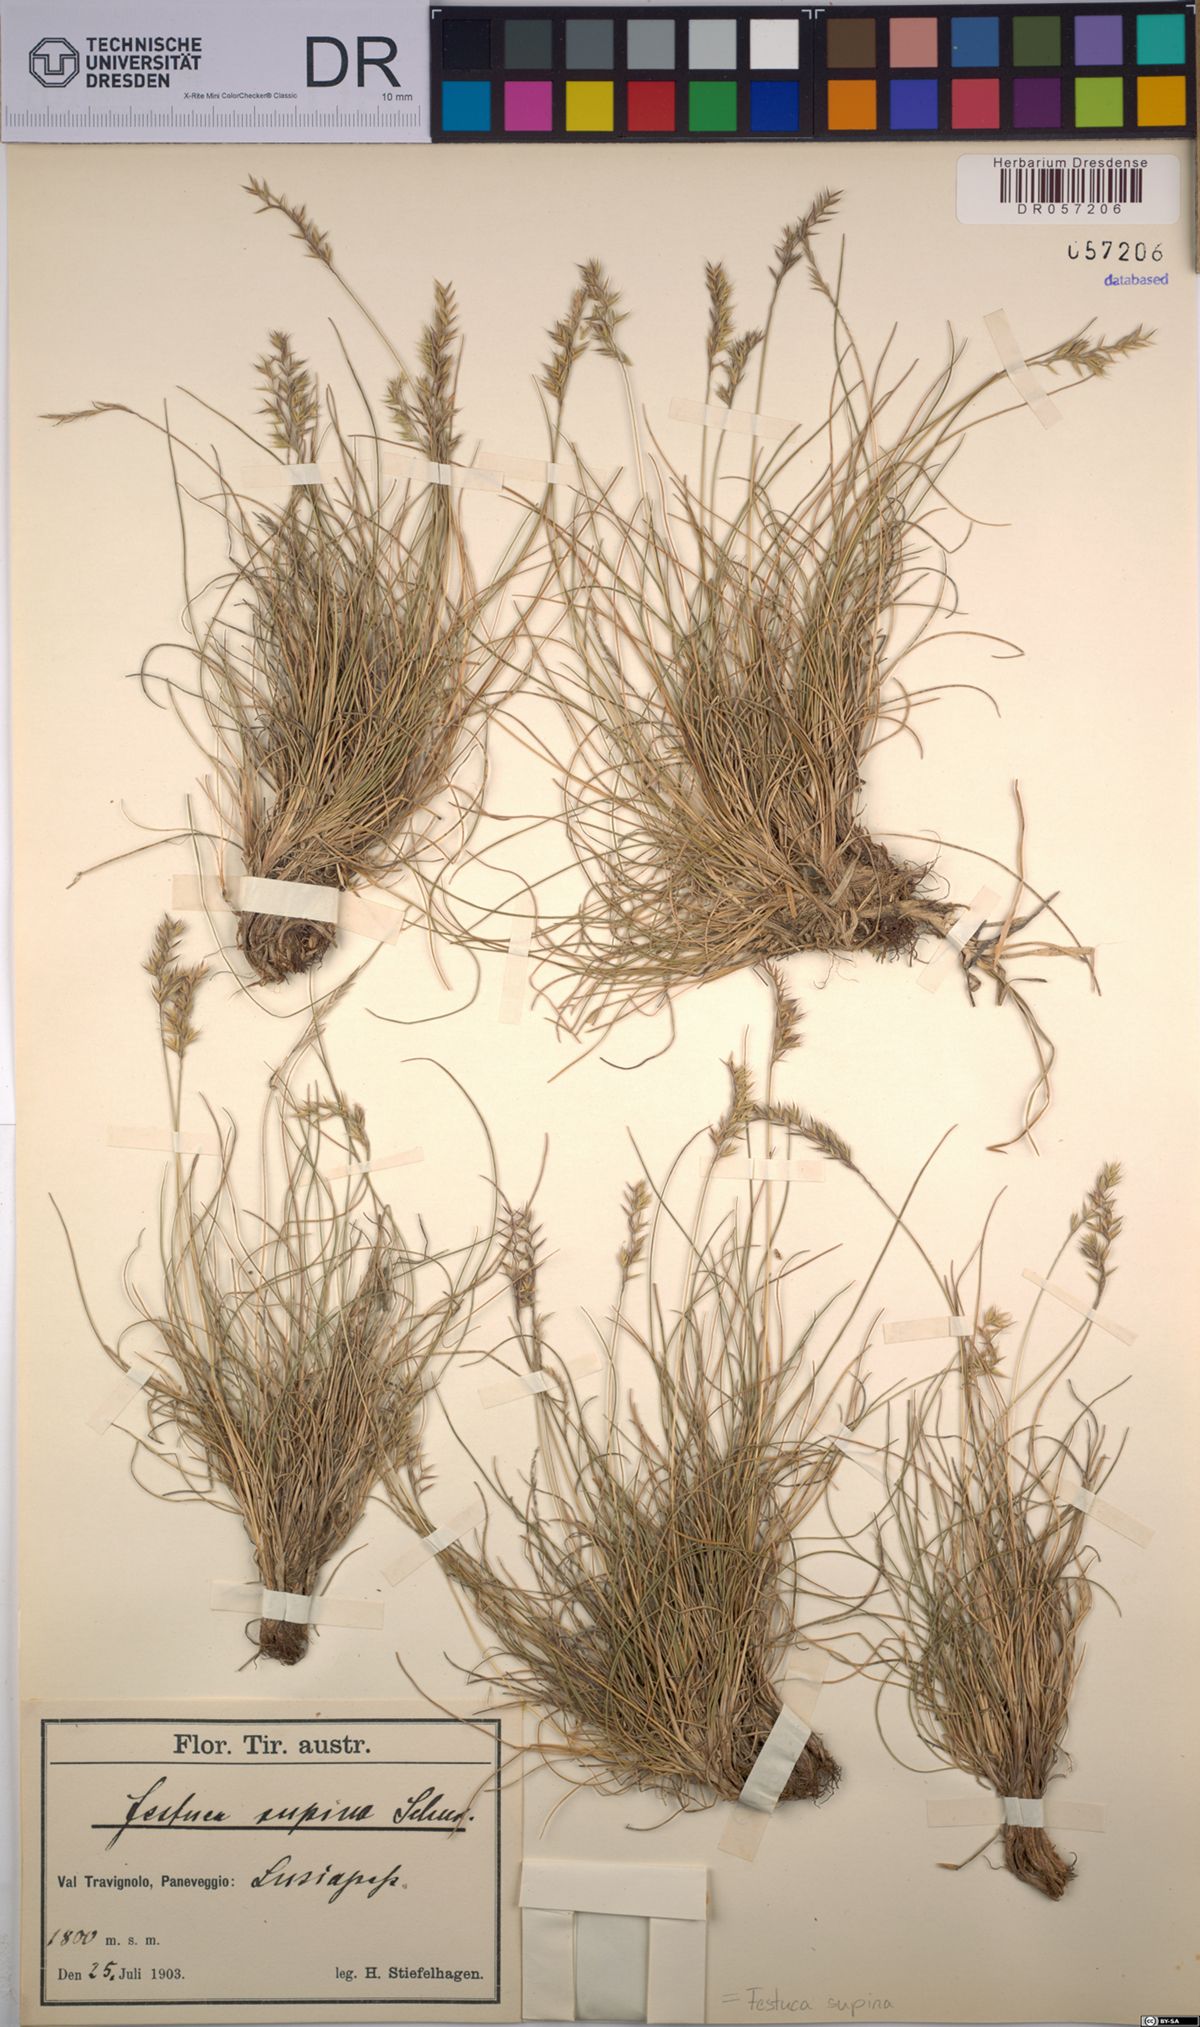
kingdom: Plantae
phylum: Tracheophyta
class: Liliopsida
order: Poales
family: Poaceae
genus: Festuca
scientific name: Festuca airoides
